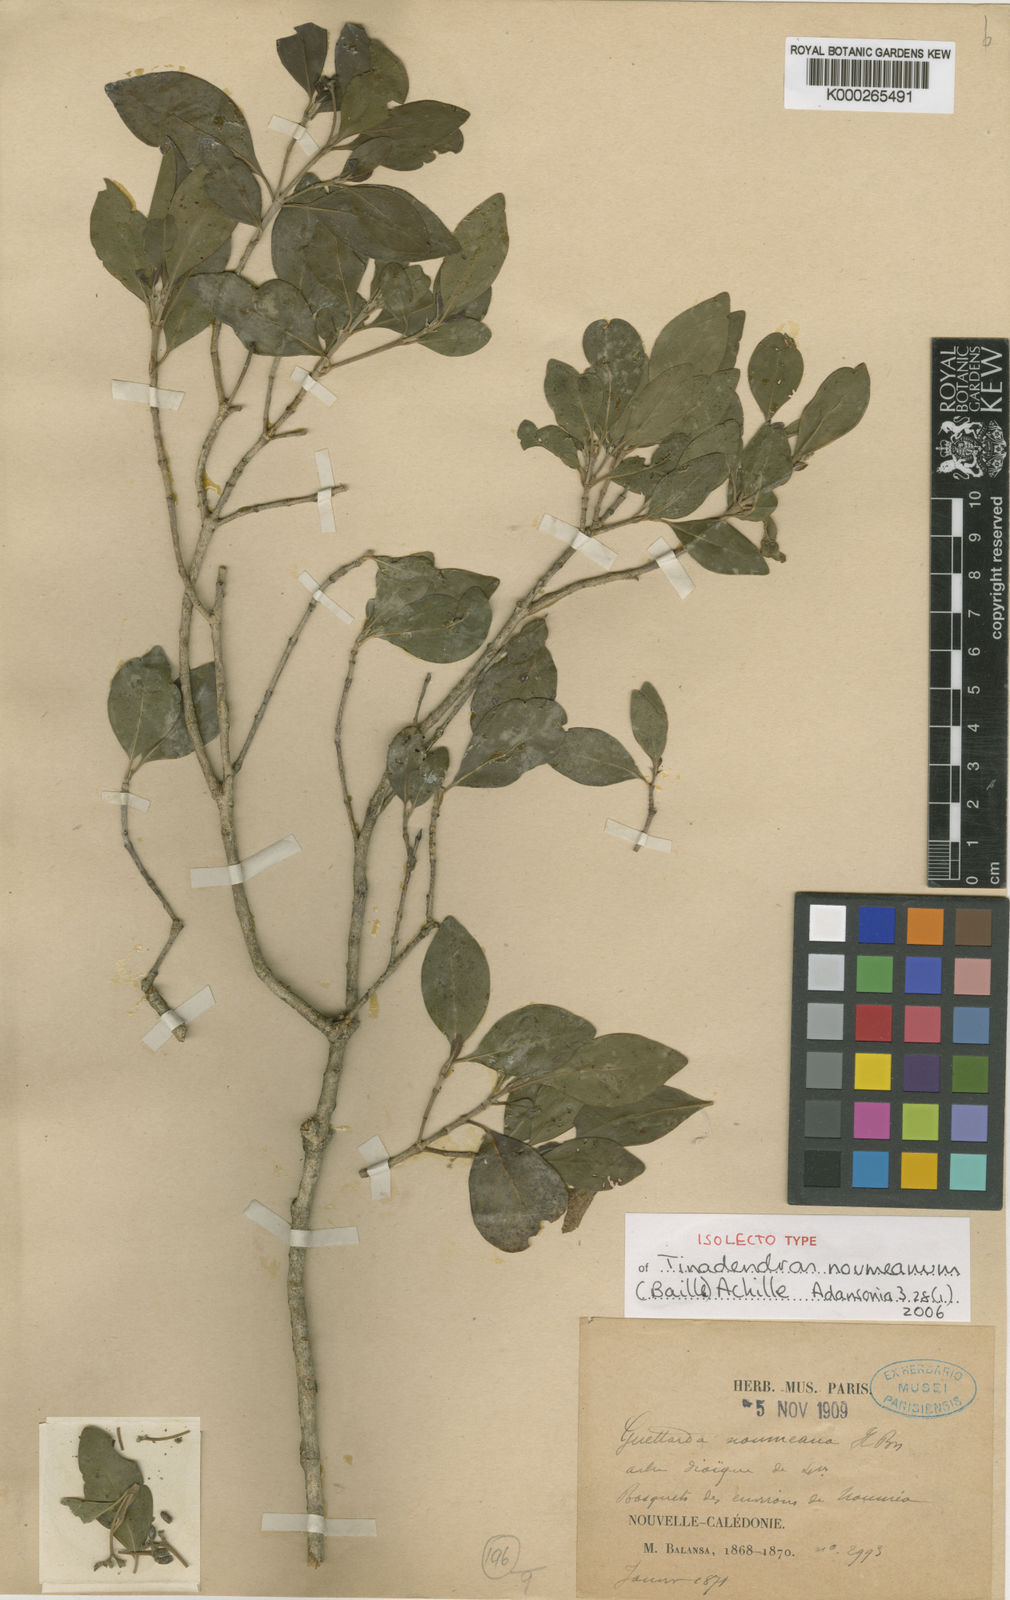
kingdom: Plantae
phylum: Tracheophyta
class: Magnoliopsida
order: Gentianales
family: Rubiaceae
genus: Tinadendron
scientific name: Tinadendron noumeanum
